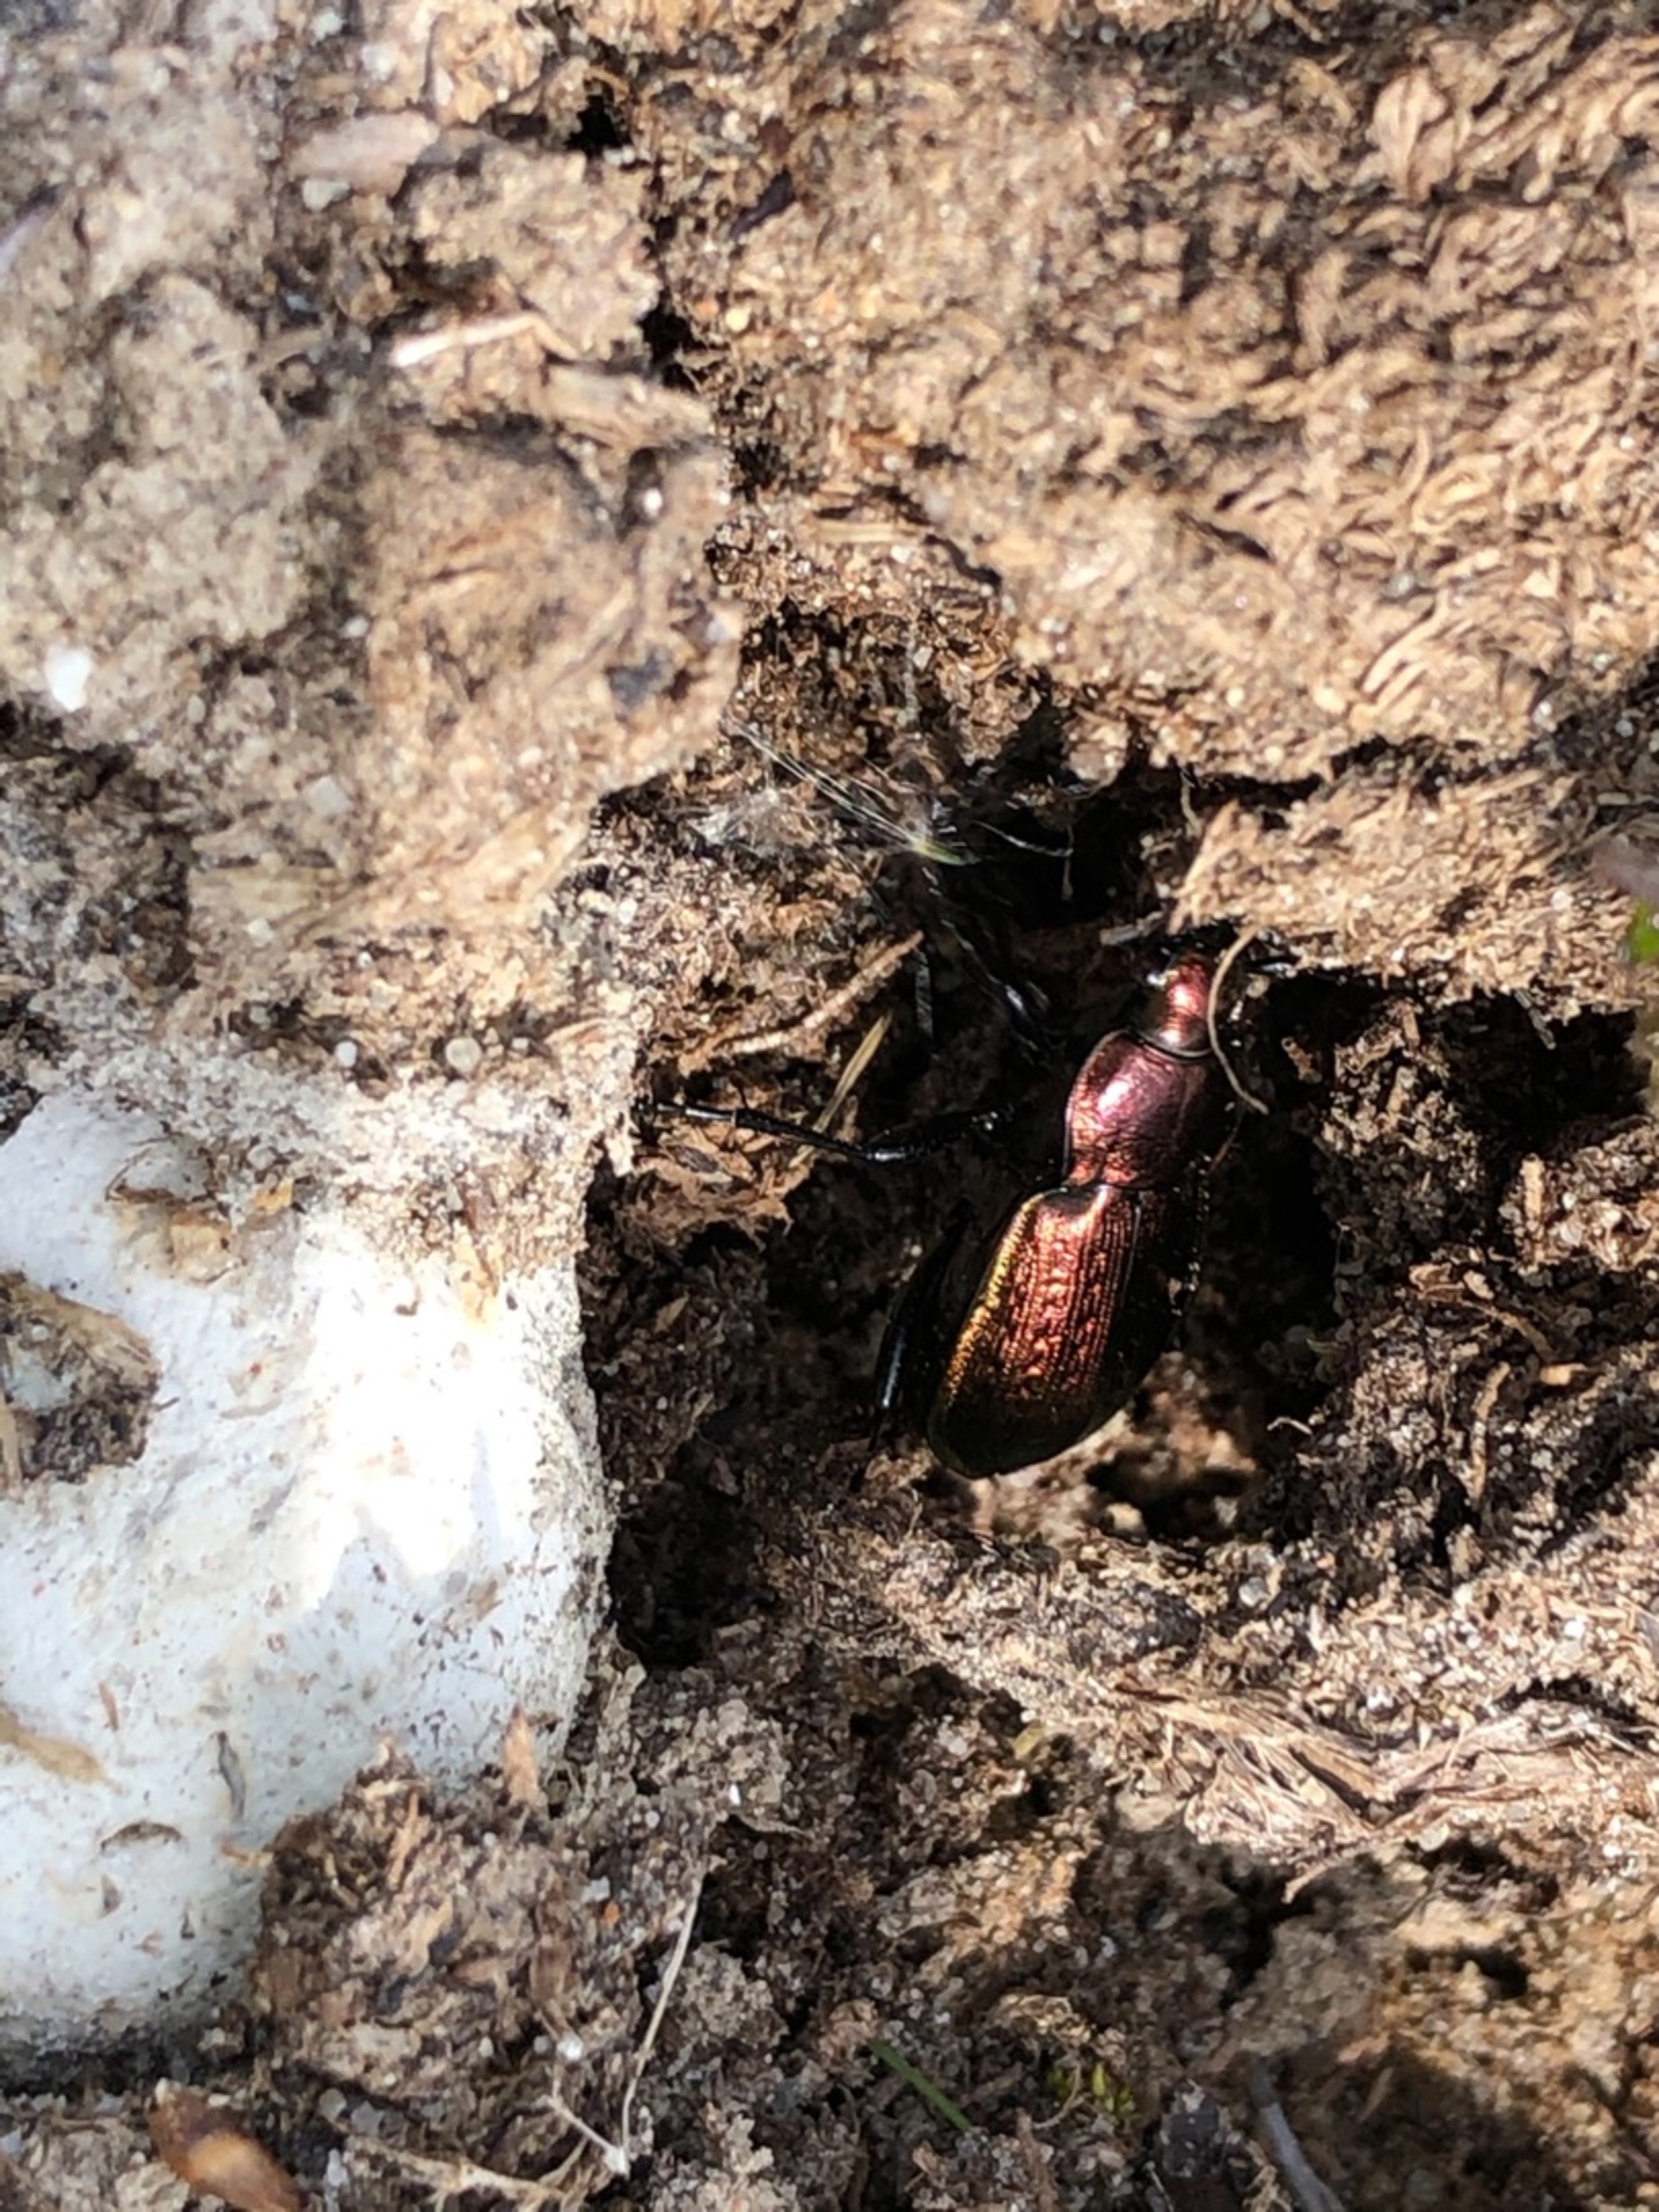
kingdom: Animalia
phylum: Arthropoda
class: Insecta
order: Coleoptera
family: Carabidae
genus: Carabus
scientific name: Carabus arvensis
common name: Lyngløber
